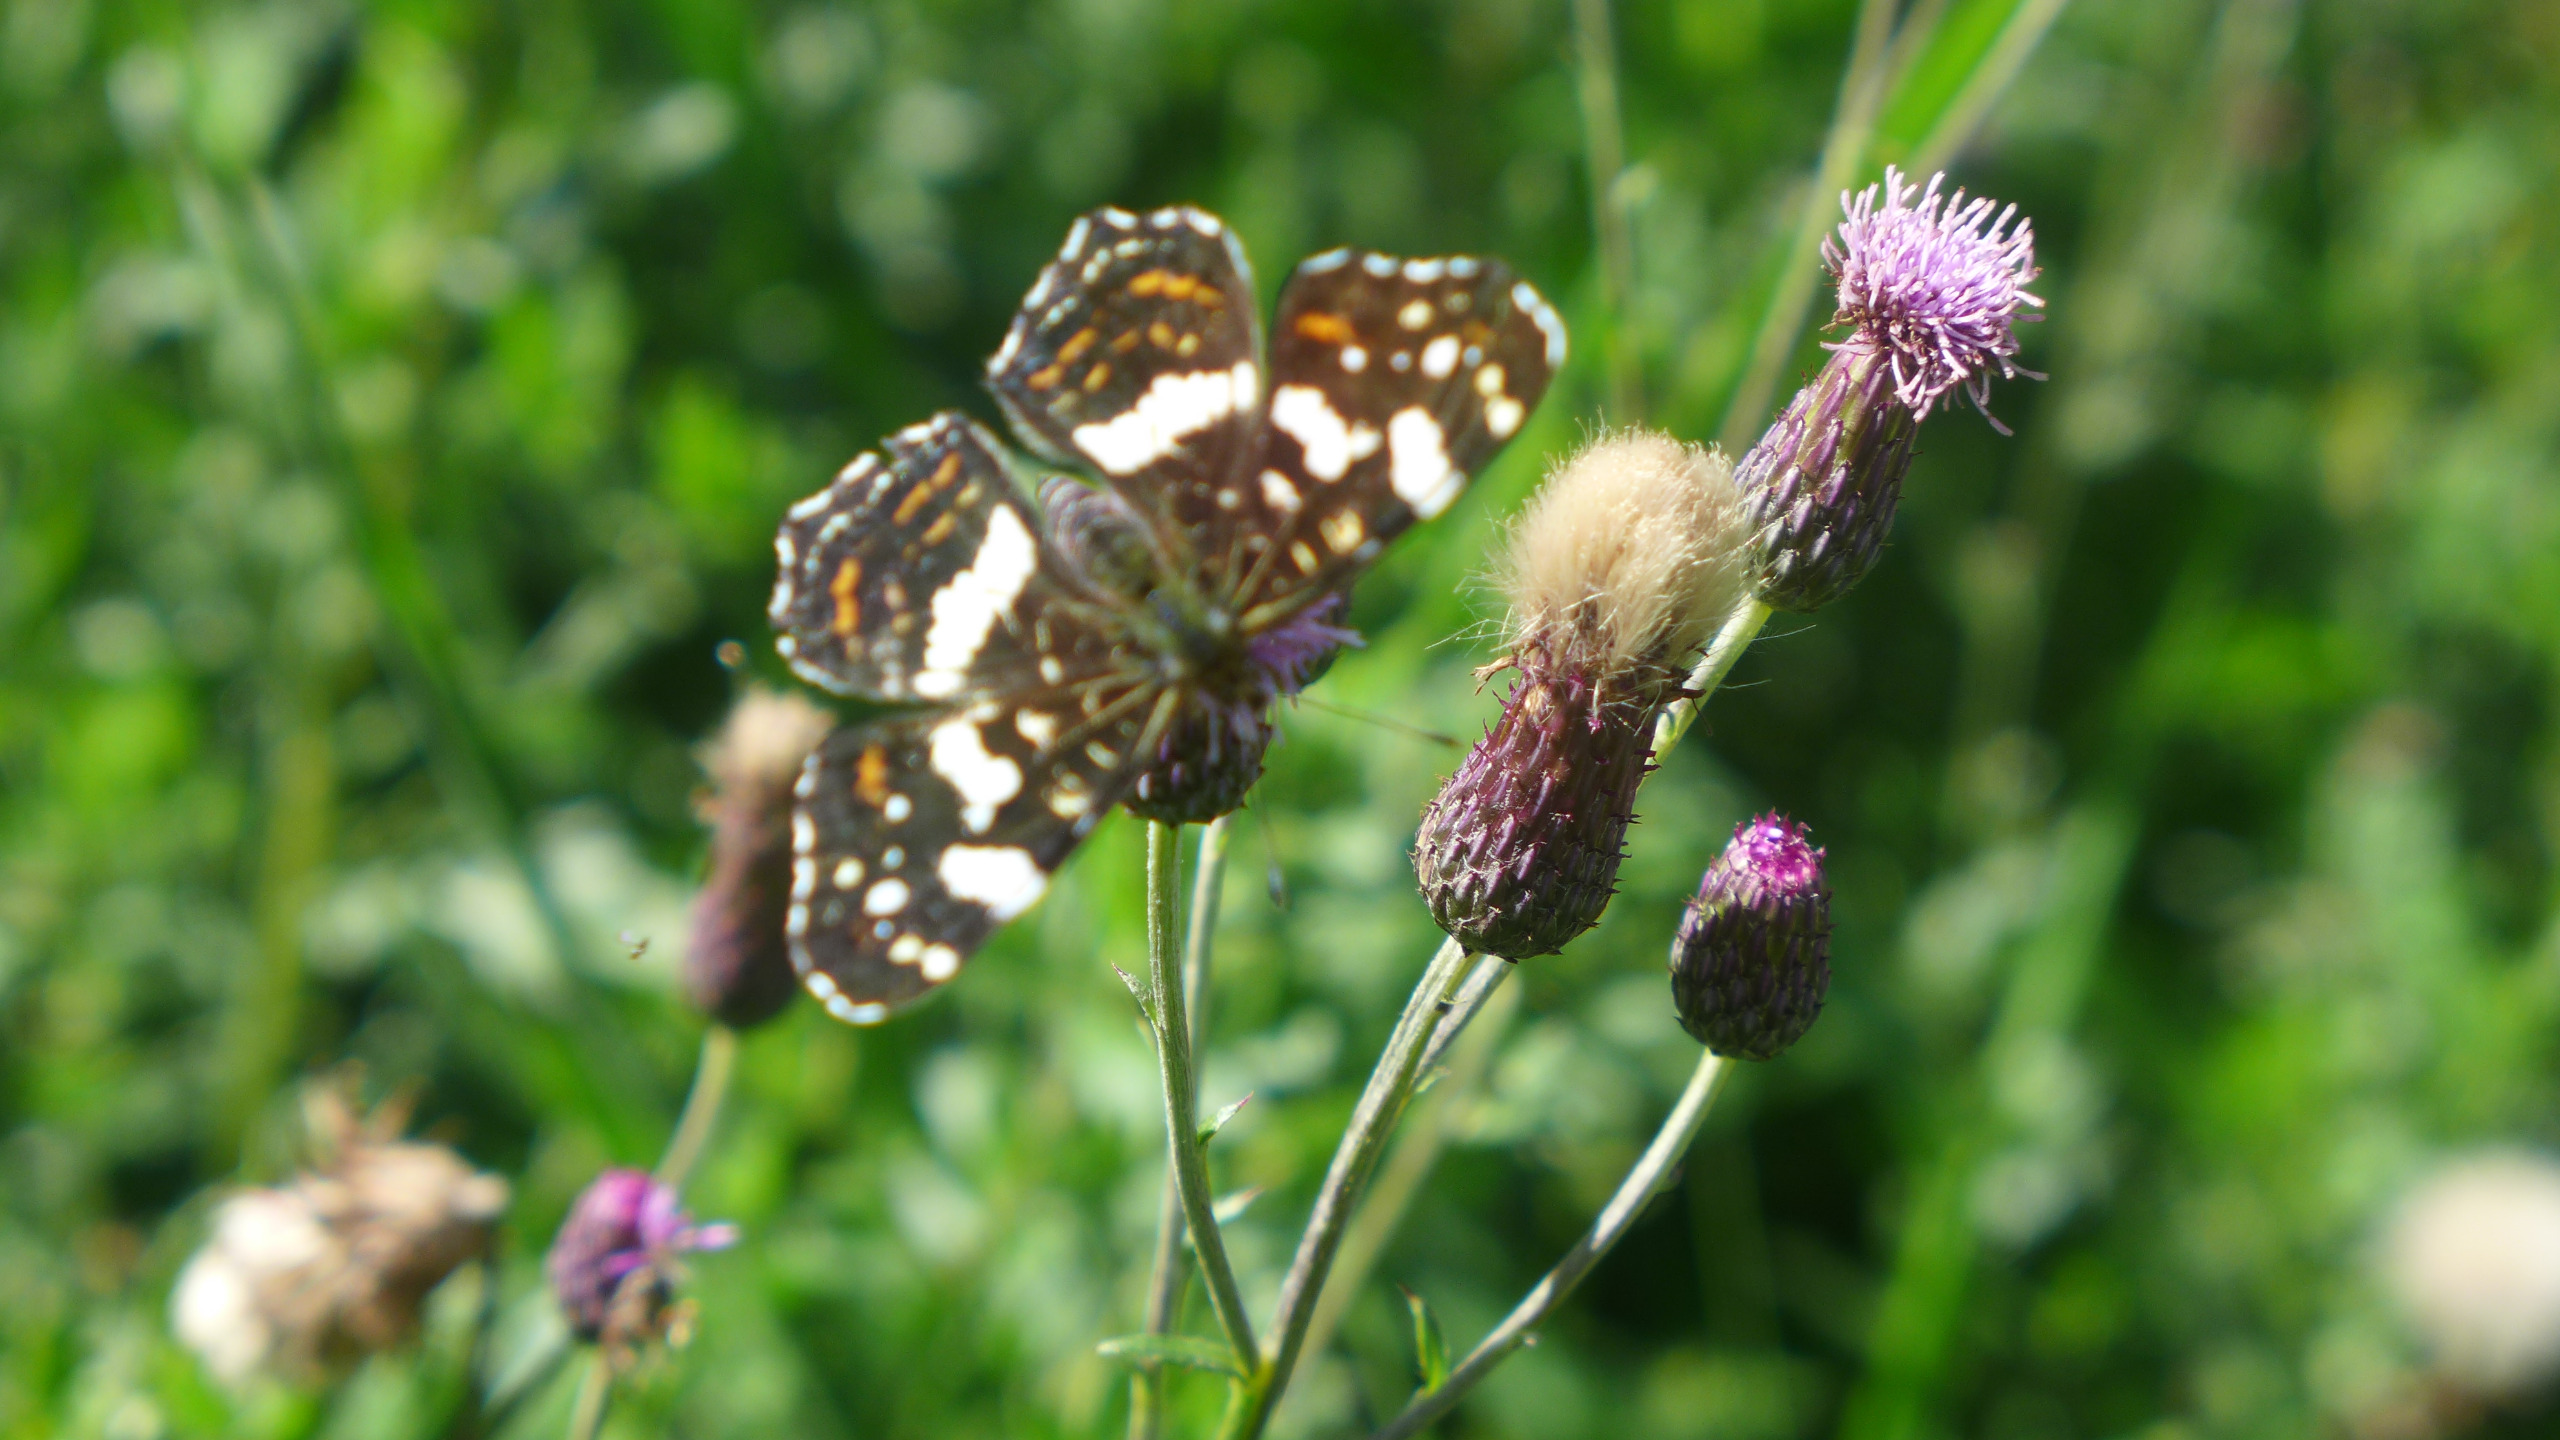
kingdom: Animalia
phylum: Arthropoda
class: Insecta
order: Lepidoptera
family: Nymphalidae
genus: Araschnia
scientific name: Araschnia levana
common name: Nældesommerfugl
